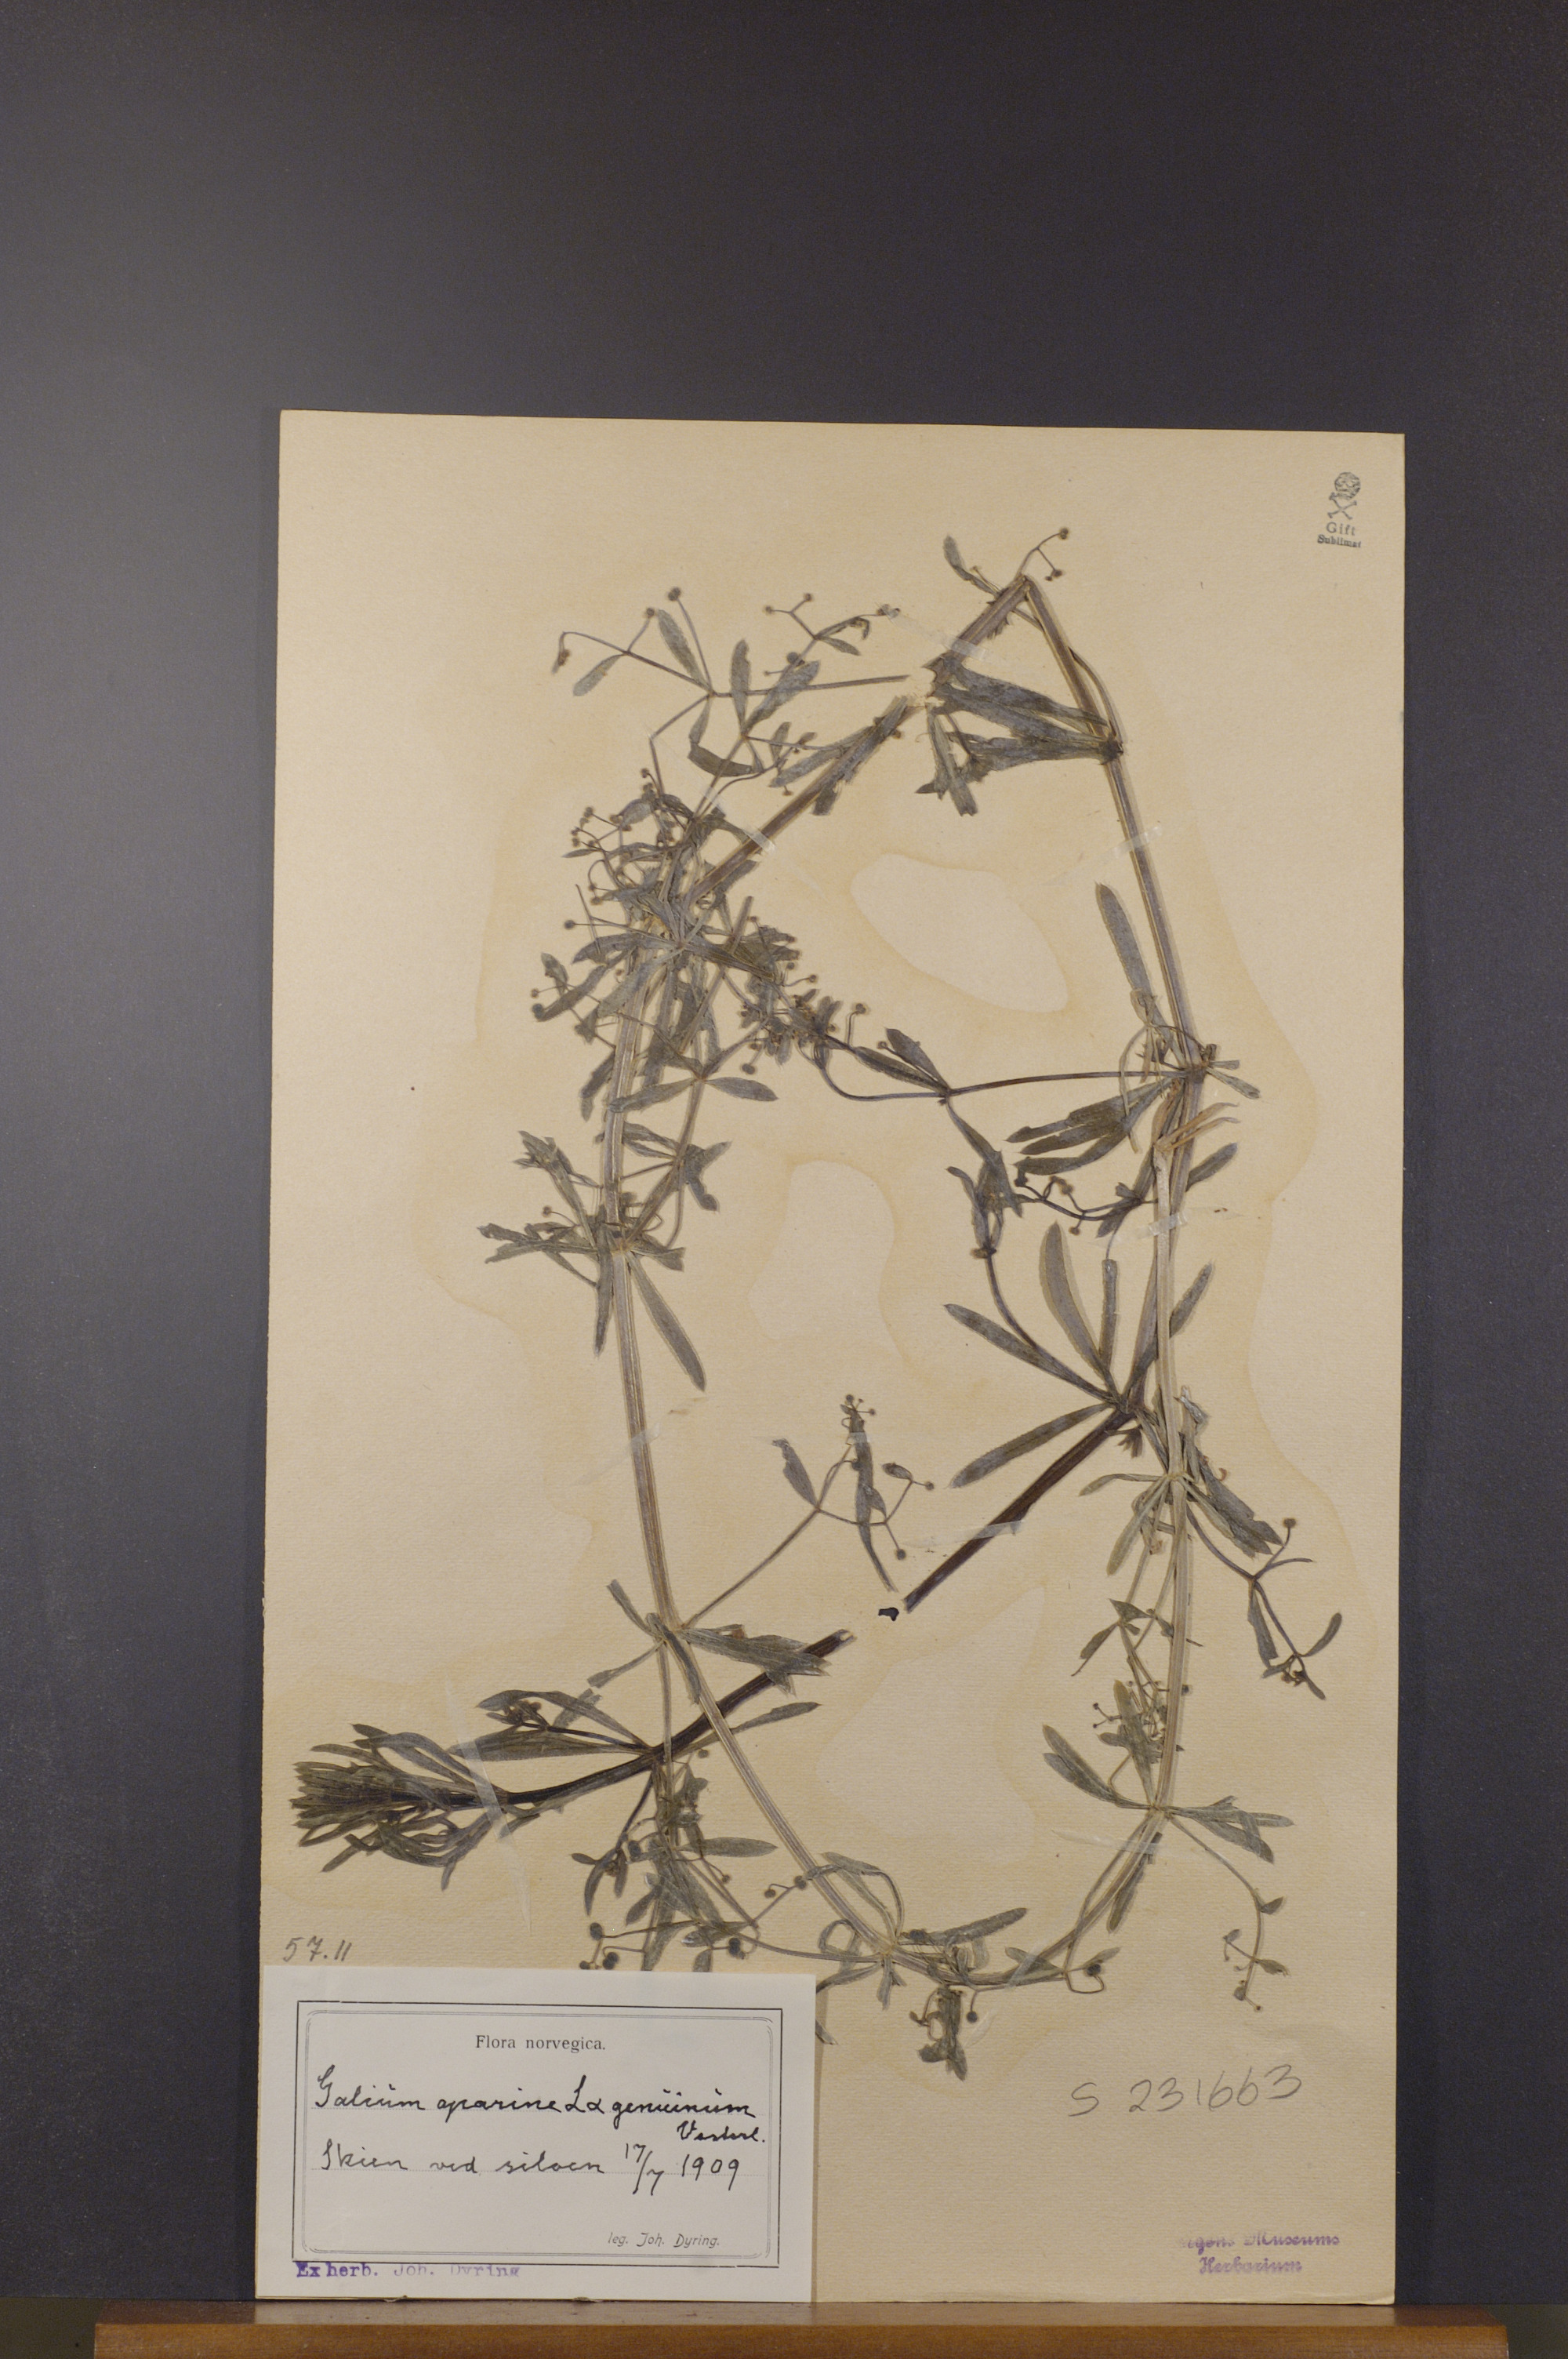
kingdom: Plantae
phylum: Tracheophyta
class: Magnoliopsida
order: Gentianales
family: Rubiaceae
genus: Galium
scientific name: Galium aparine
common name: Cleavers
